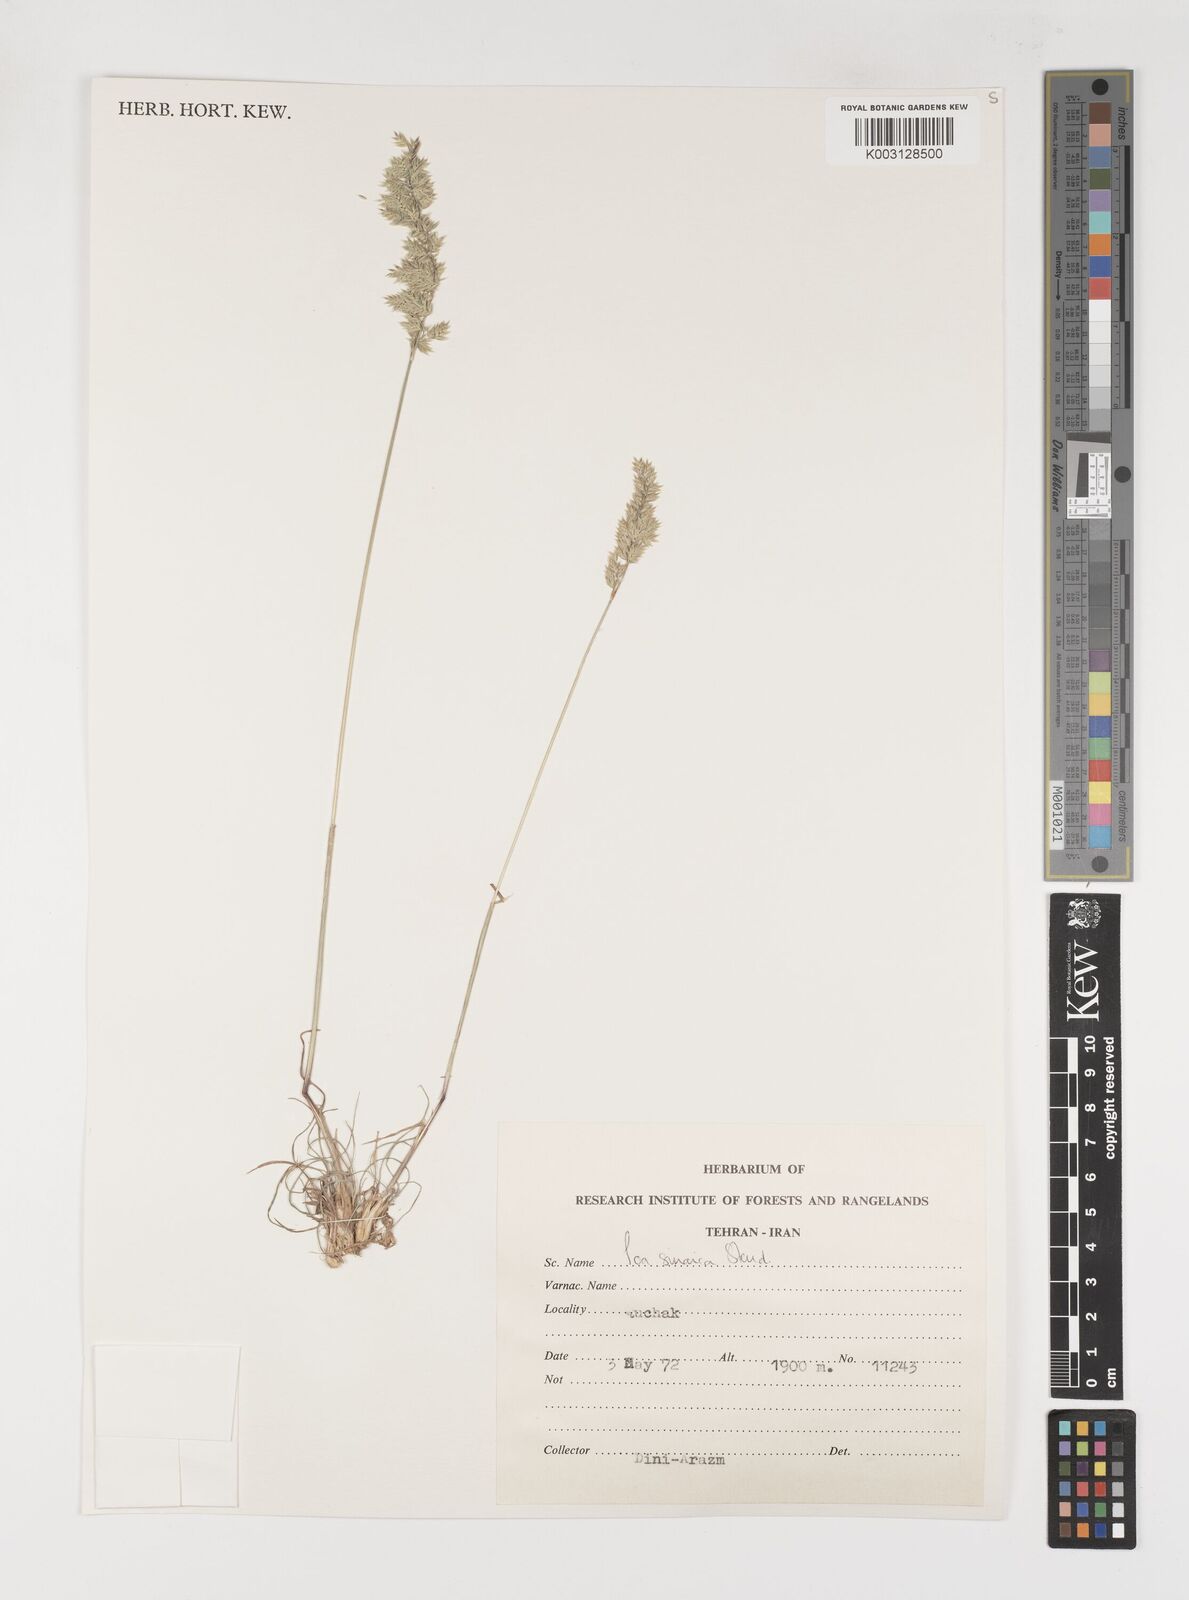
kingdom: Plantae
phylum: Tracheophyta
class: Liliopsida
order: Poales
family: Poaceae
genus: Poa
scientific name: Poa sinaica
